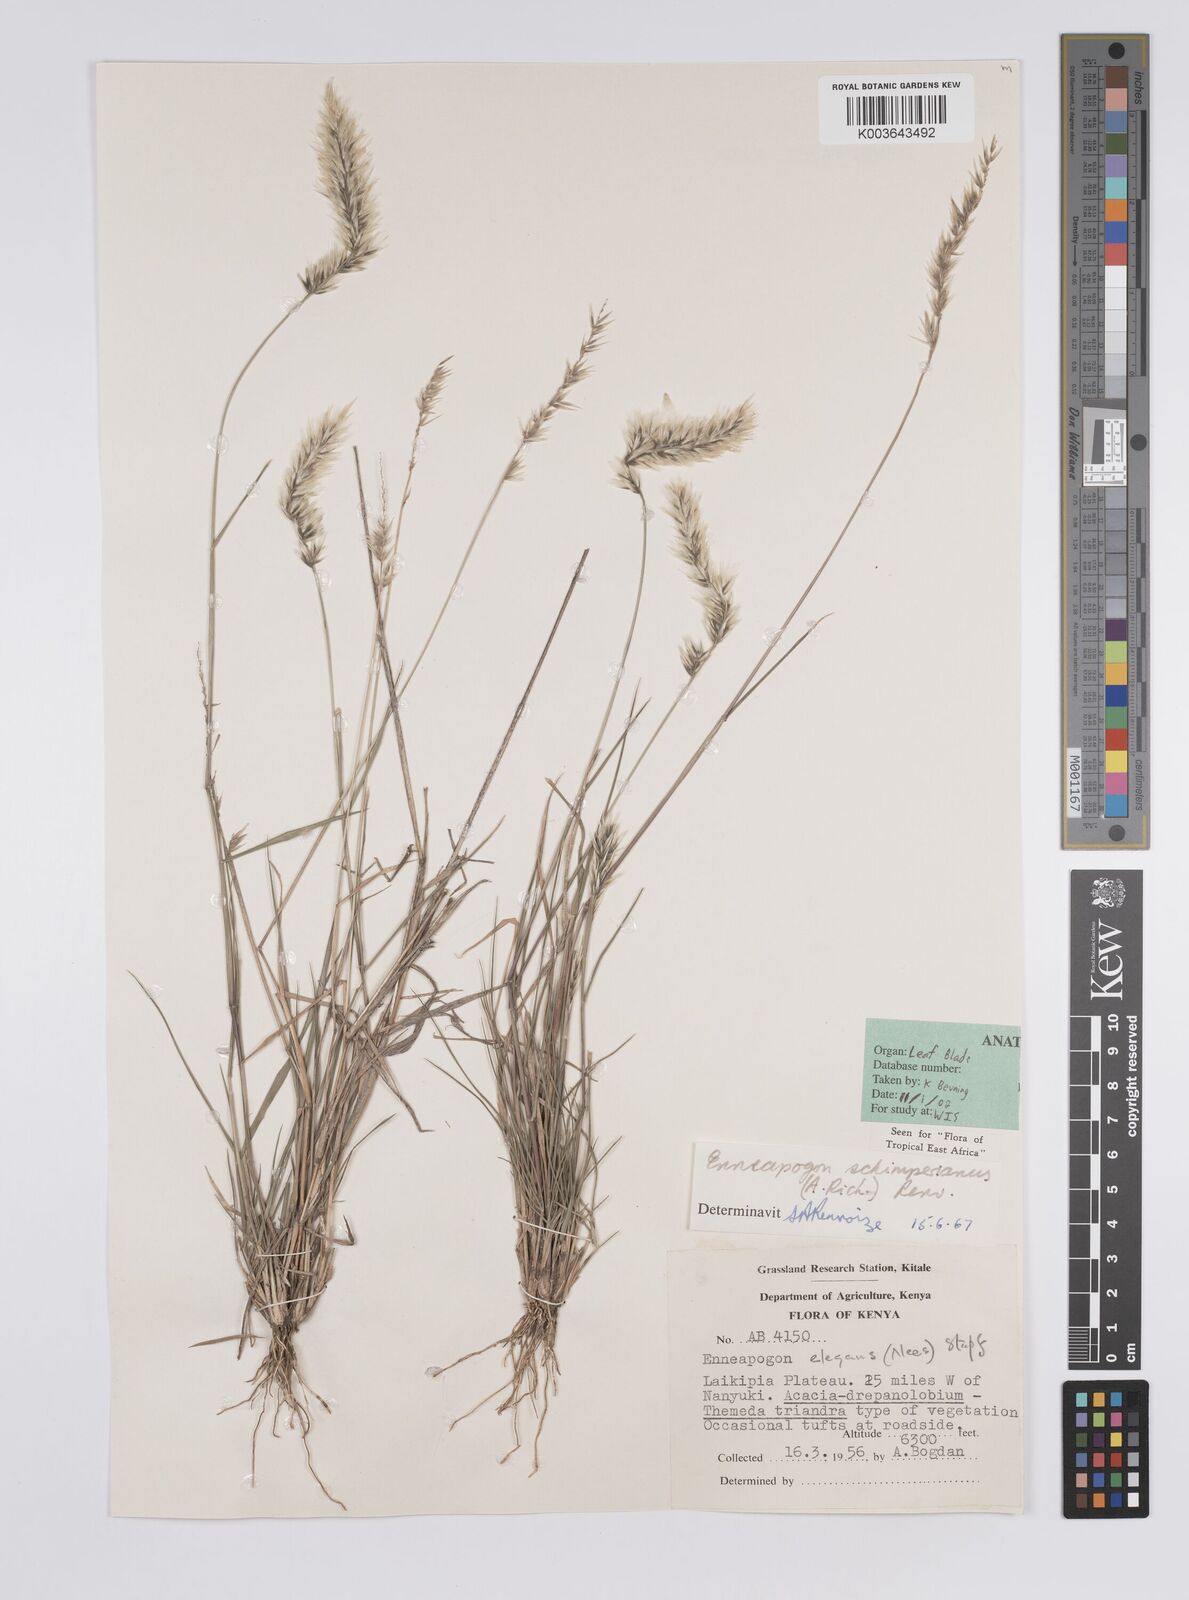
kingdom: Plantae
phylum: Tracheophyta
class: Liliopsida
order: Poales
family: Poaceae
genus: Enneapogon
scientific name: Enneapogon persicus
